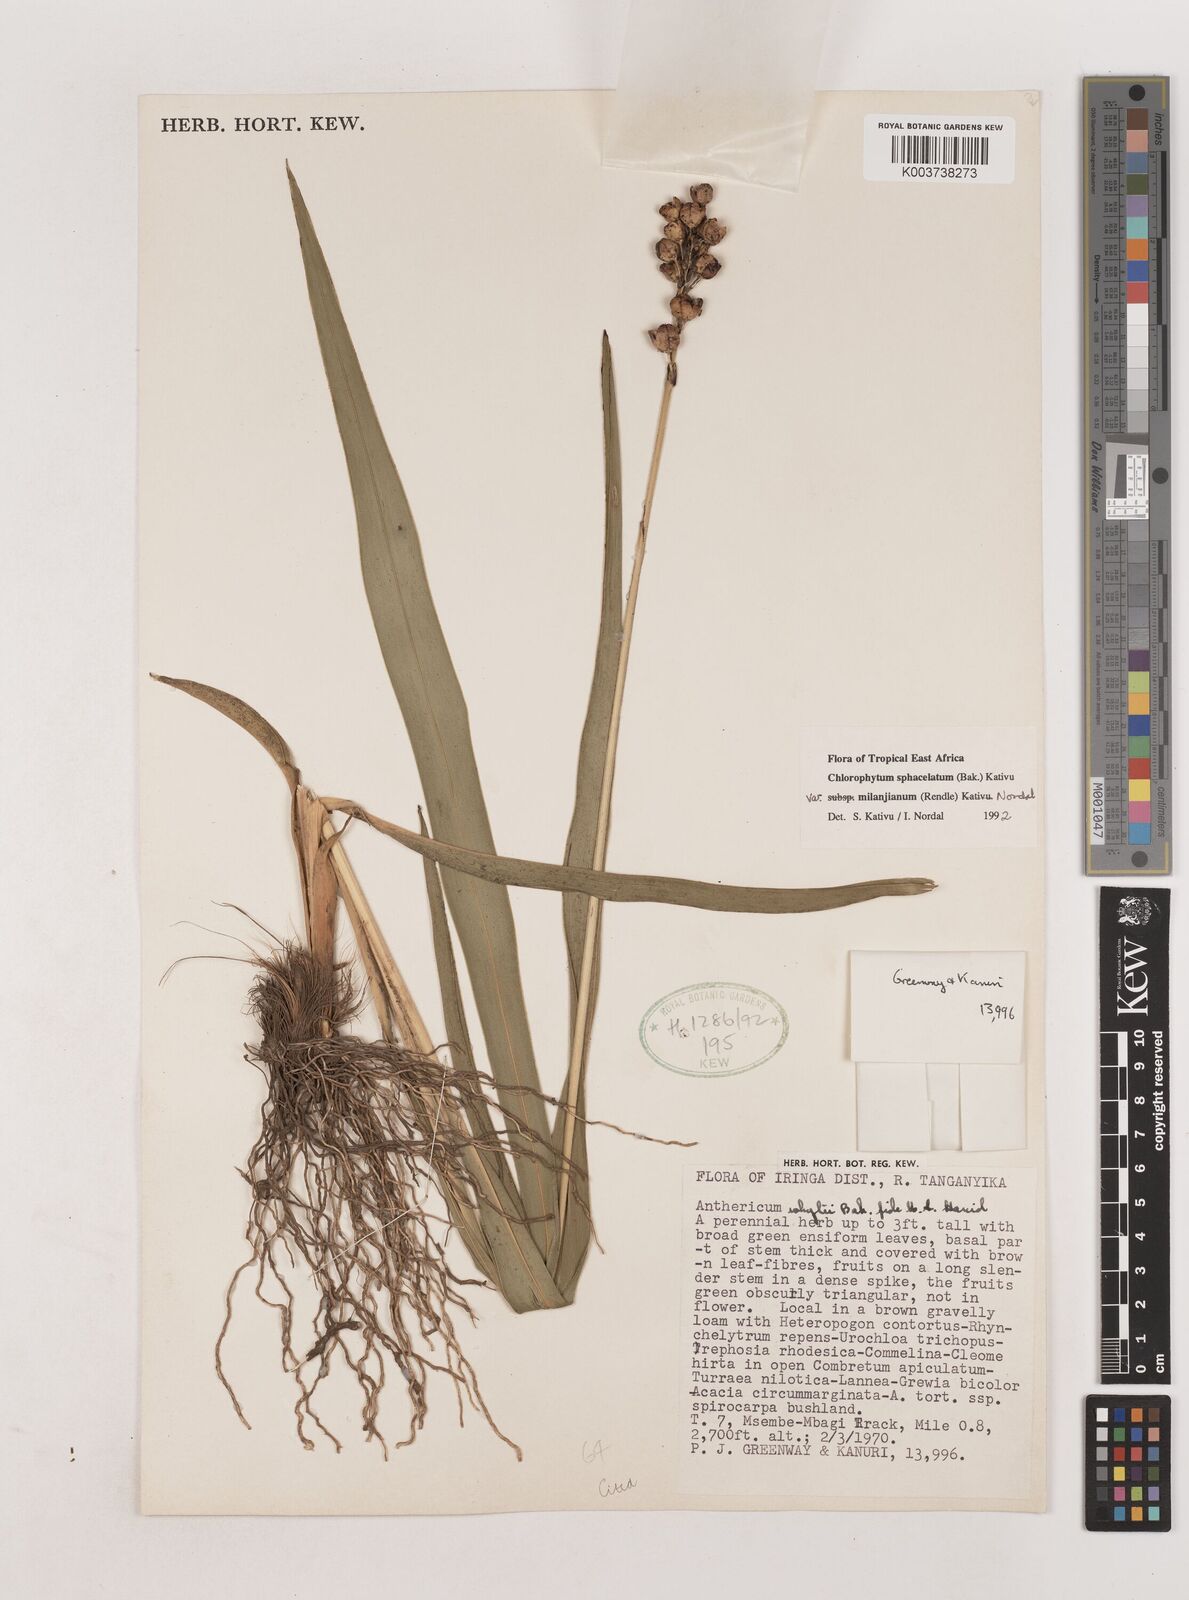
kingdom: Plantae
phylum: Tracheophyta
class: Liliopsida
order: Asparagales
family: Asparagaceae
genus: Chlorophytum
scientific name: Chlorophytum sphacelatum
